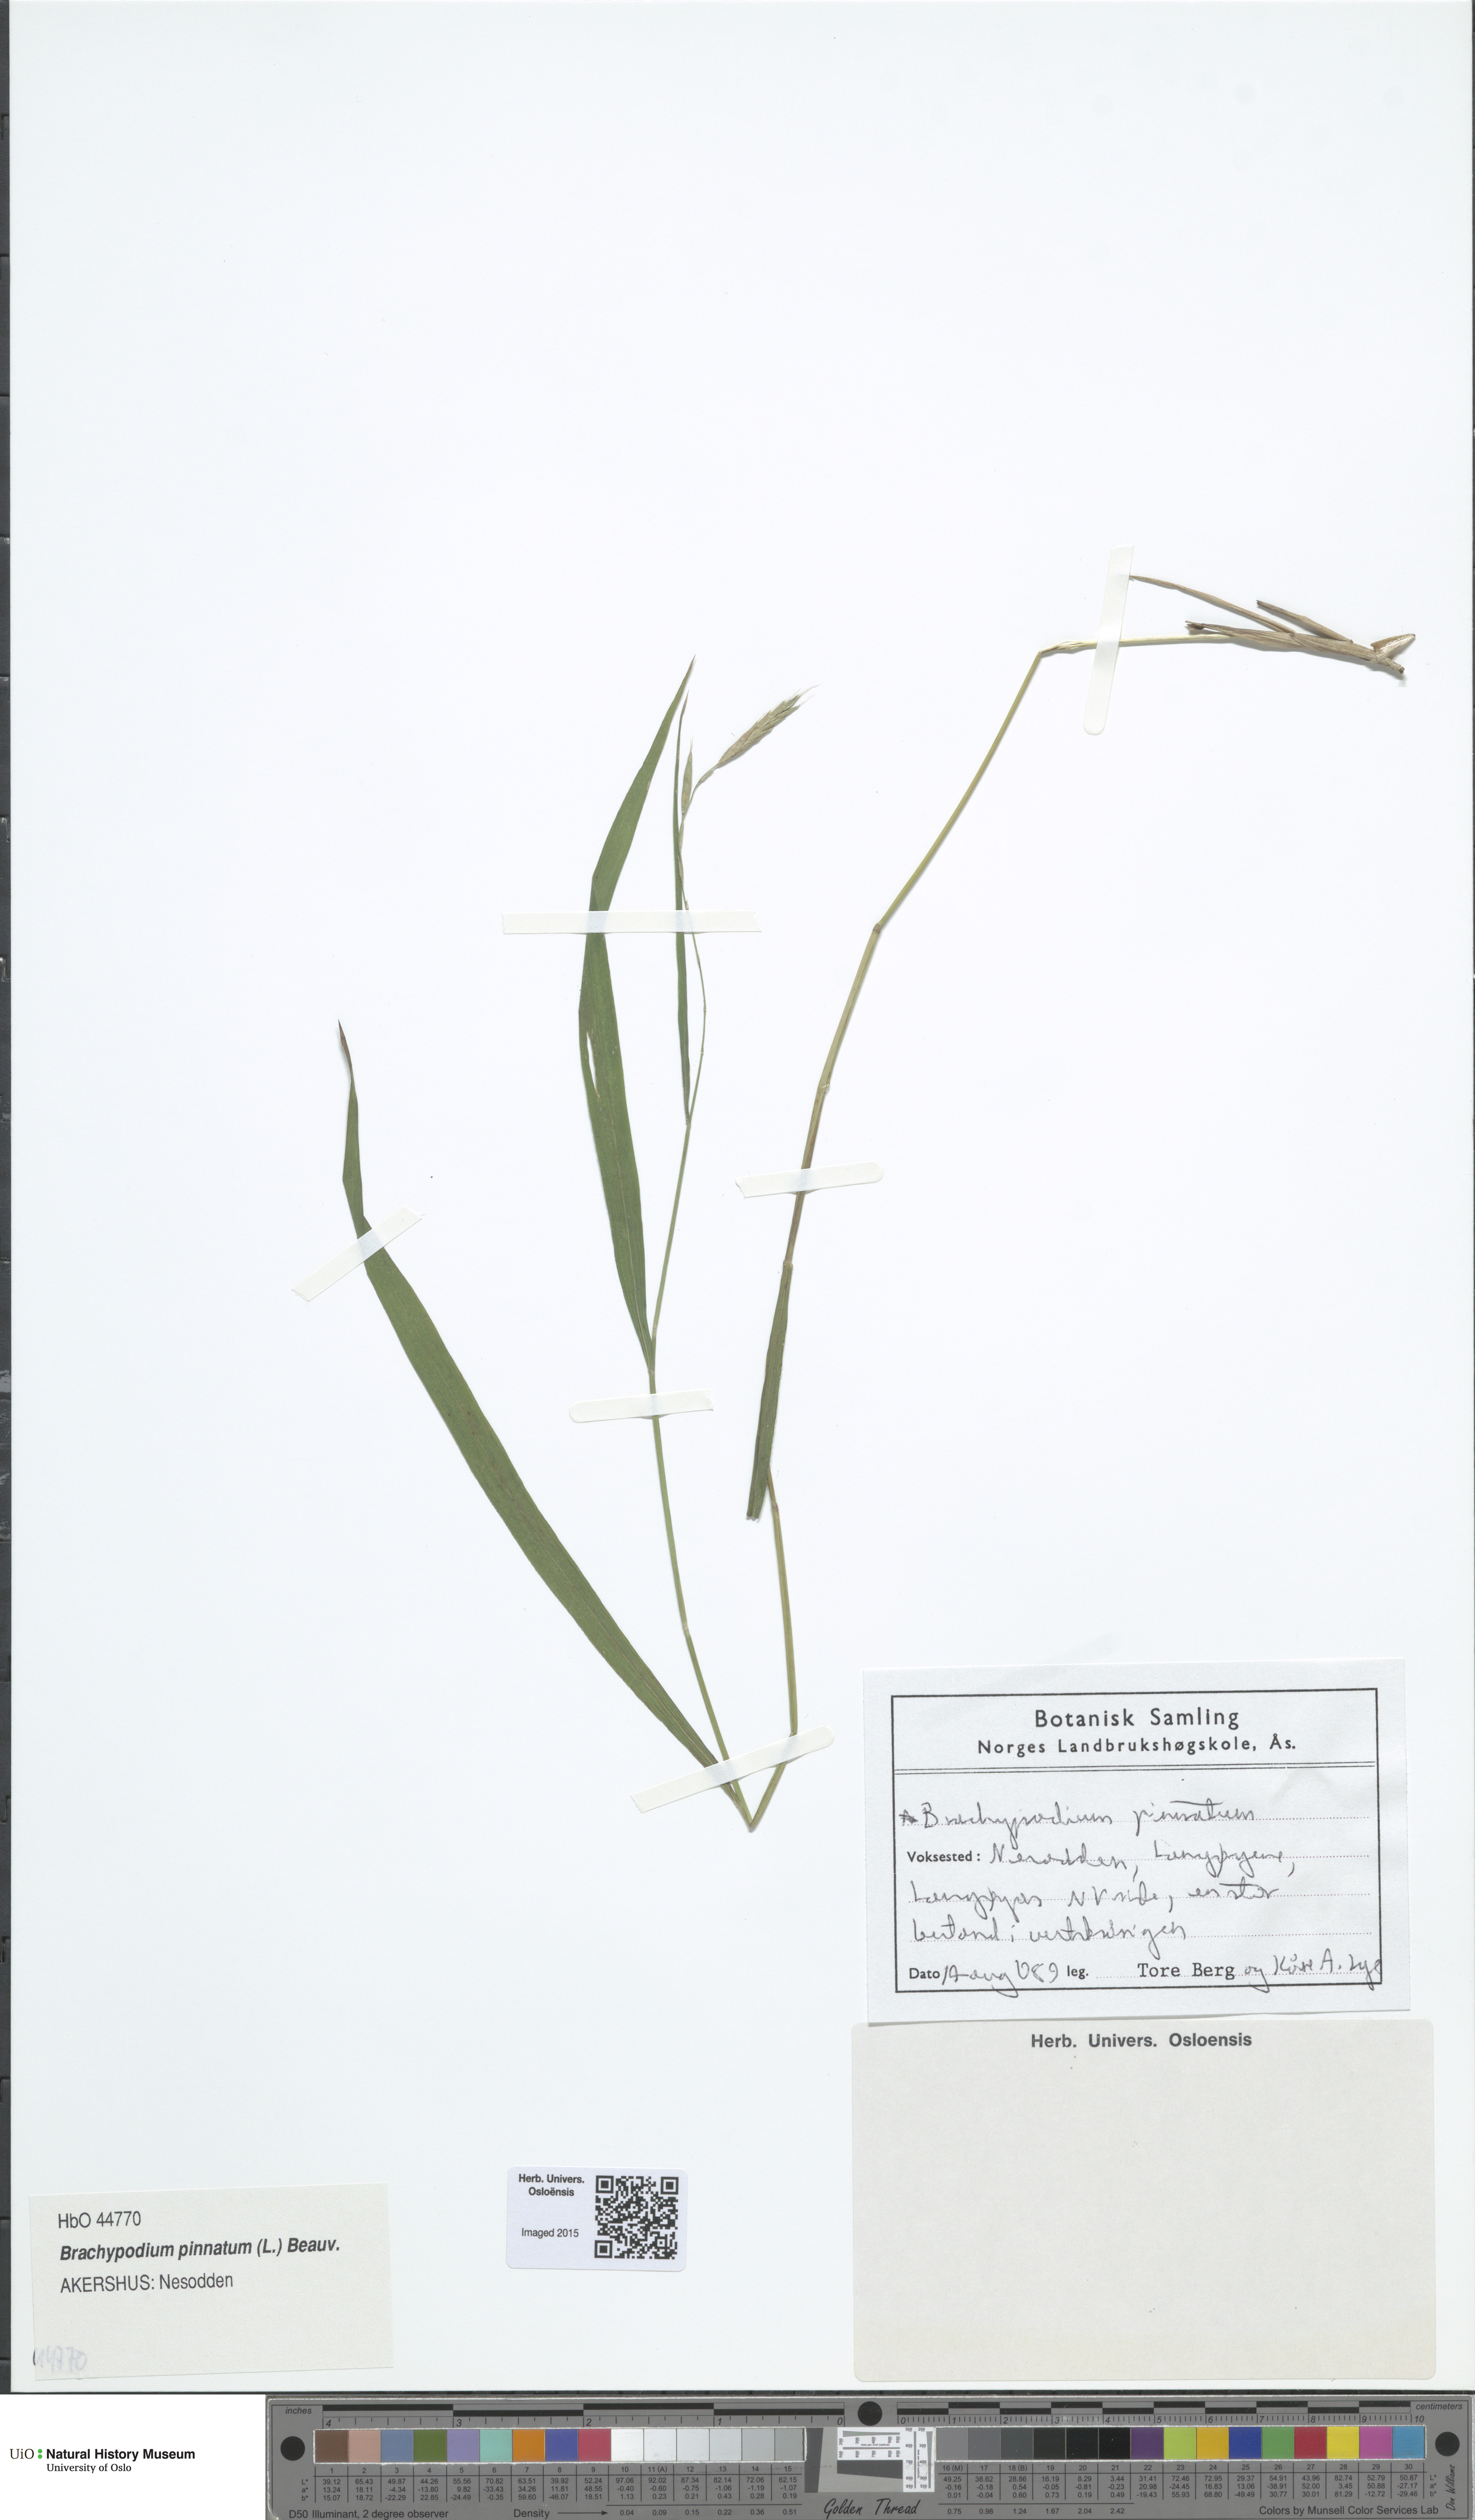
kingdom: Plantae
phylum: Tracheophyta
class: Liliopsida
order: Poales
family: Poaceae
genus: Brachypodium
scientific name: Brachypodium pinnatum
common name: Tor grass
